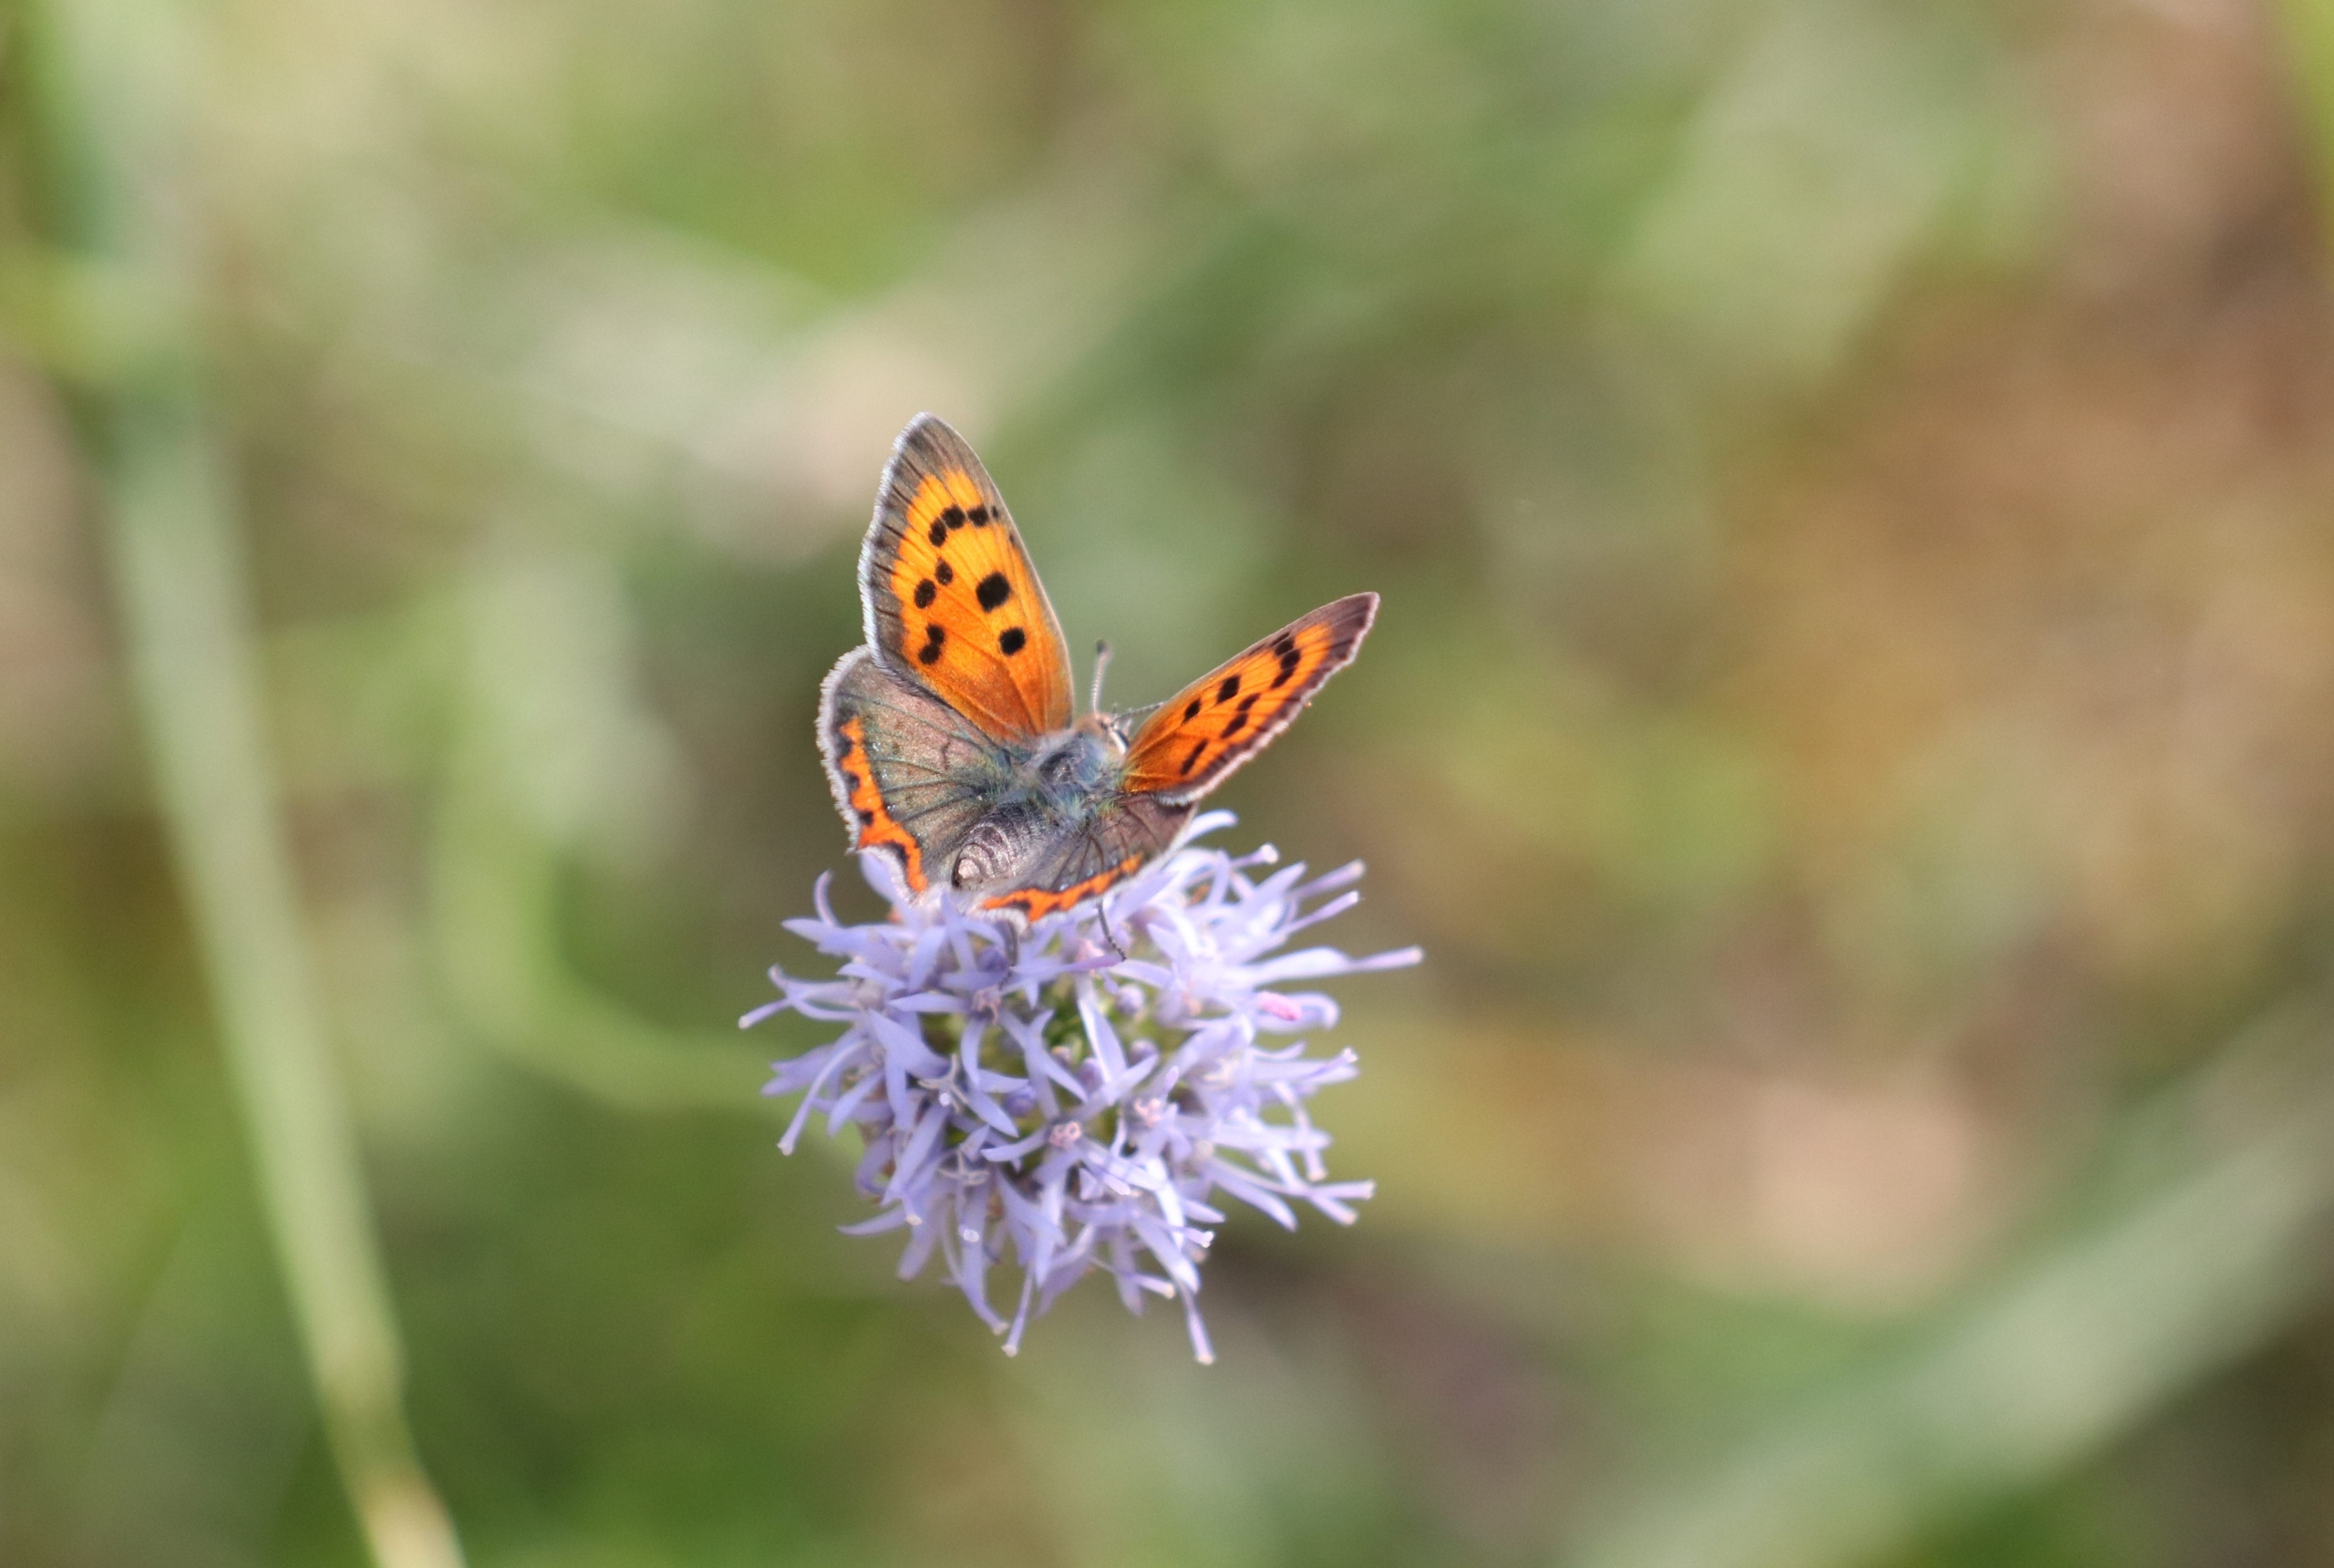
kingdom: Animalia
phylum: Arthropoda
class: Insecta
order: Lepidoptera
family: Lycaenidae
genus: Lycaena
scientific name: Lycaena phlaeas
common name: Lille ildfugl
